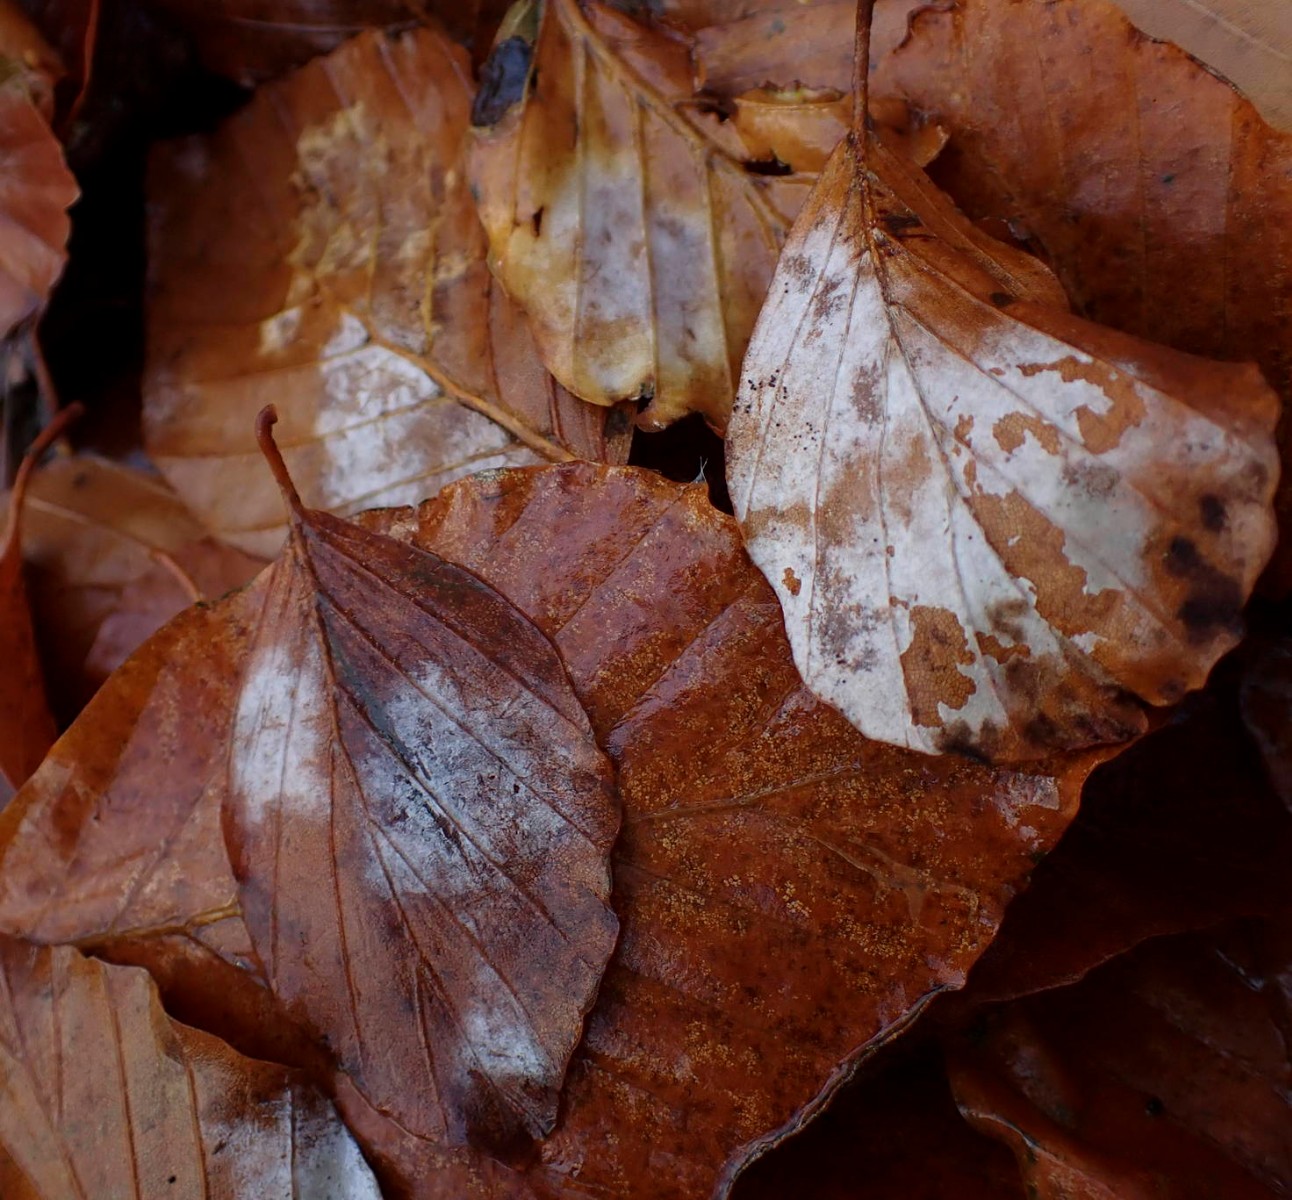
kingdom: Fungi
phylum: Ascomycota
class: Leotiomycetes
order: Helotiales
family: Erysiphaceae
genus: Phyllactinia
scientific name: Phyllactinia orbicularis
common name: bøge-meldug
